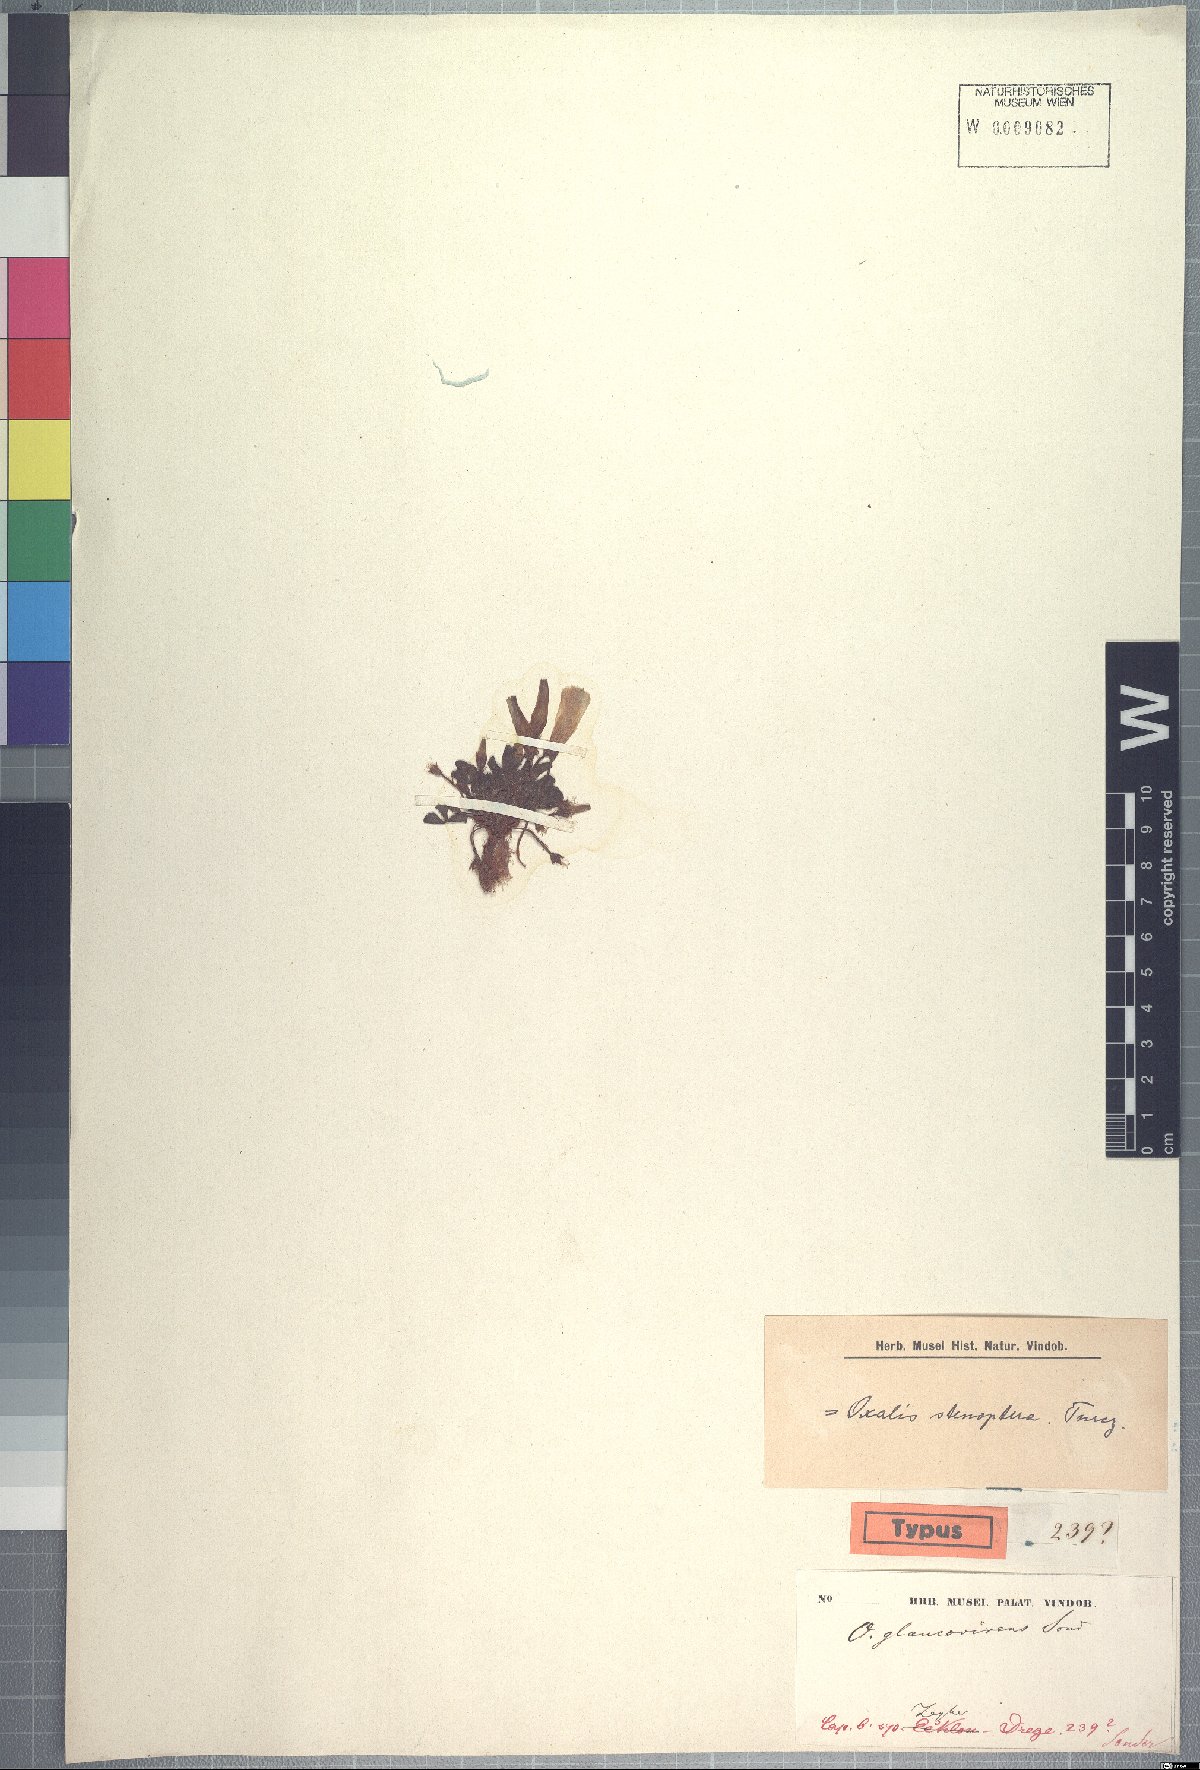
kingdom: Plantae
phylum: Tracheophyta
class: Magnoliopsida
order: Oxalidales
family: Oxalidaceae
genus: Oxalis
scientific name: Oxalis stenoptera
